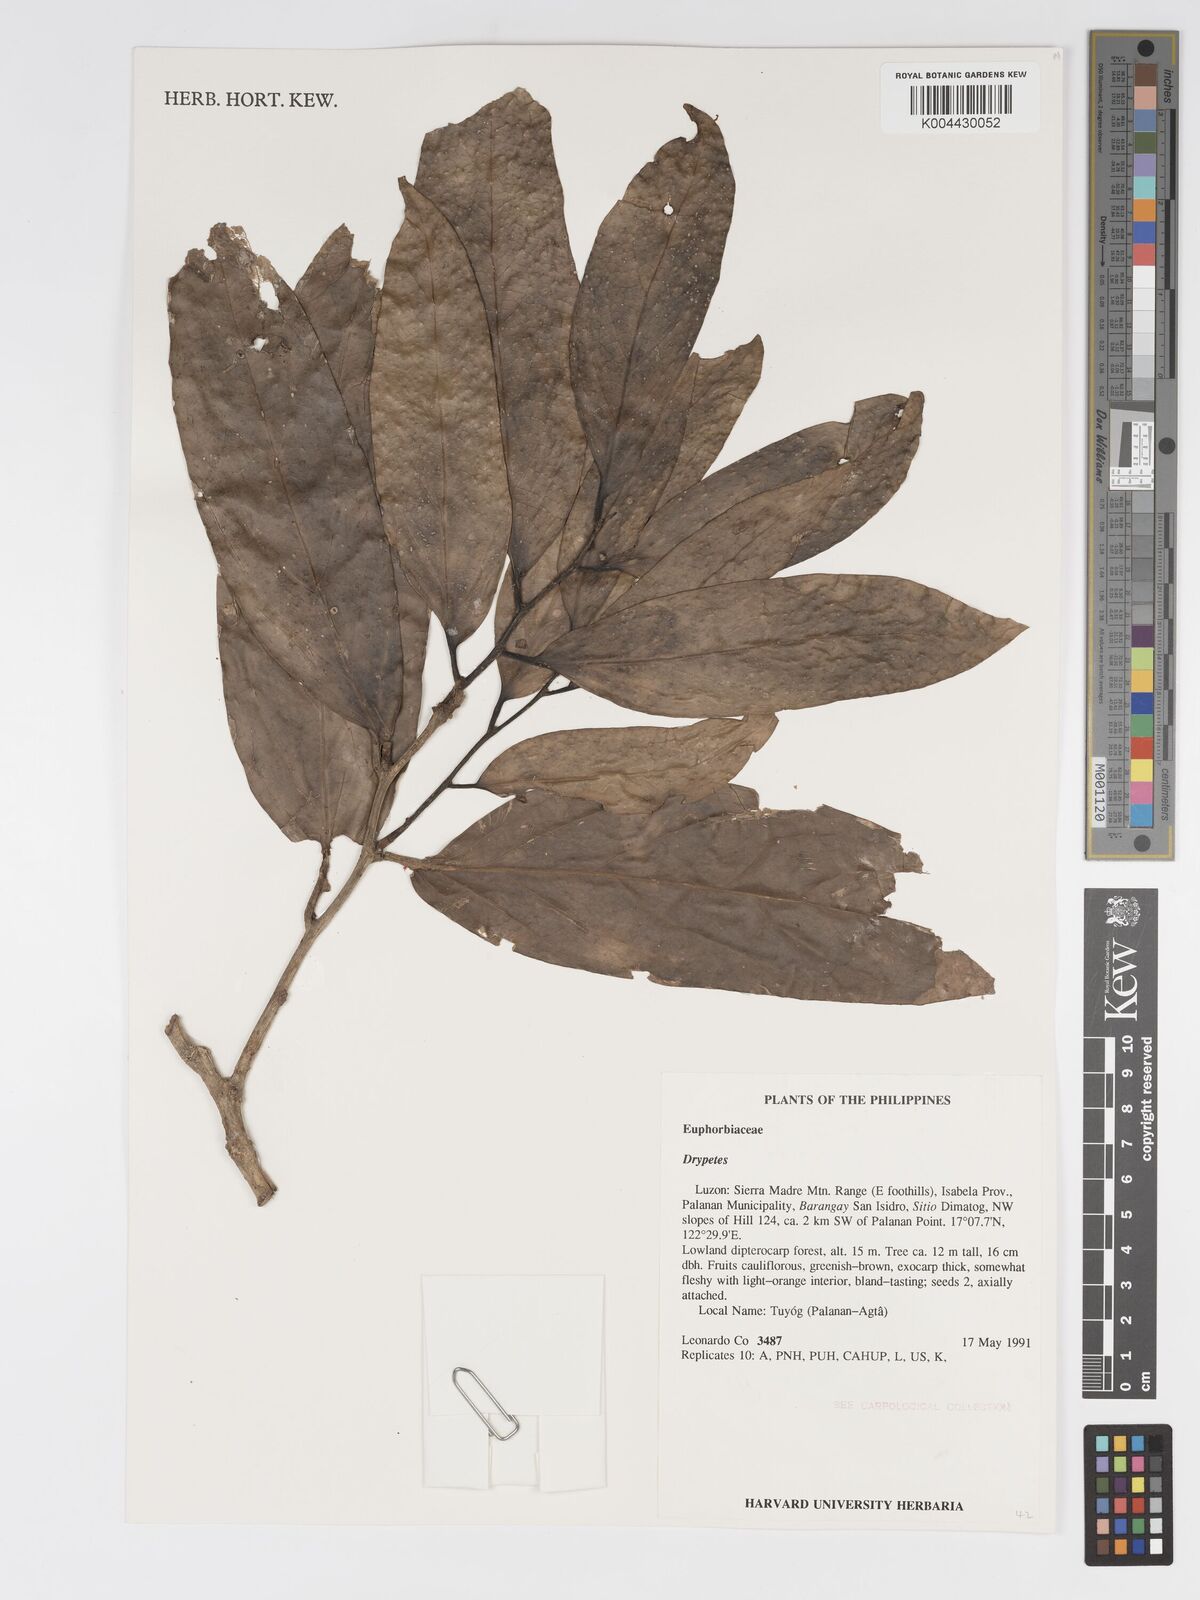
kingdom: Plantae
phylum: Tracheophyta
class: Magnoliopsida
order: Malpighiales
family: Putranjivaceae
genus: Drypetes
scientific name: Drypetes
